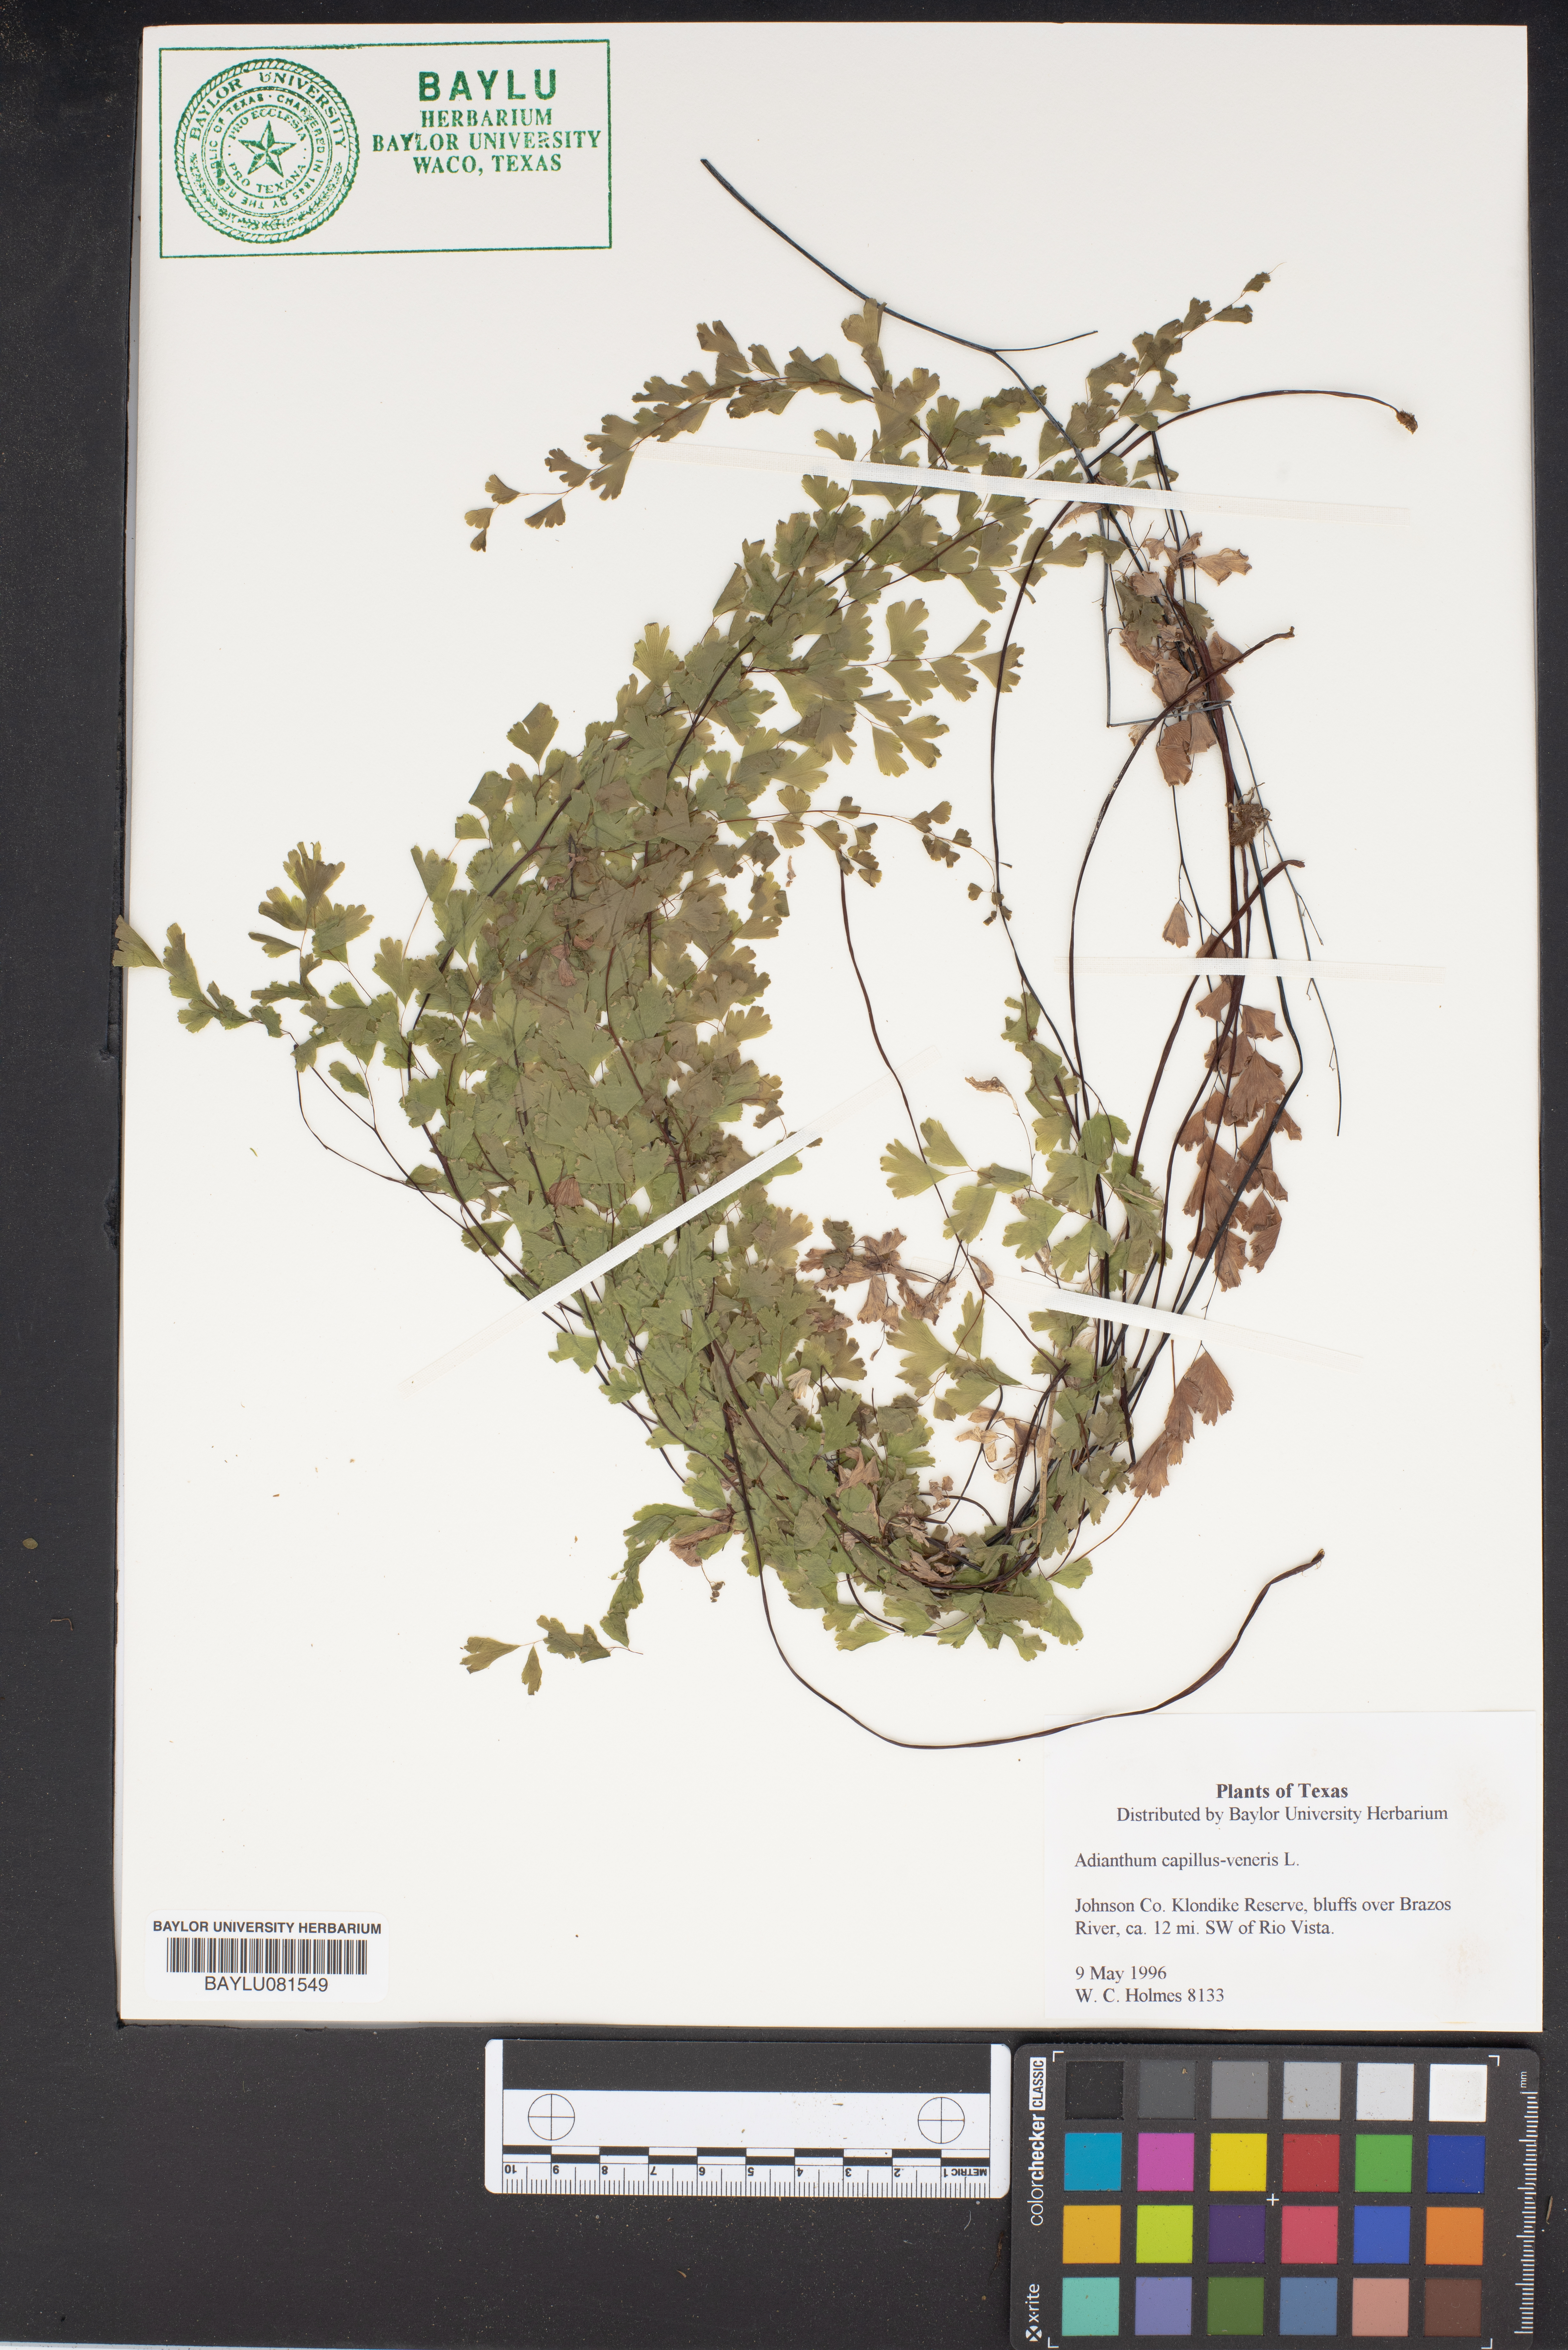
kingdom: Plantae
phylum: Tracheophyta
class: Polypodiopsida
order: Polypodiales
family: Pteridaceae
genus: Adiantum
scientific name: Adiantum capillus-veneris
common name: Maidenhair fern
